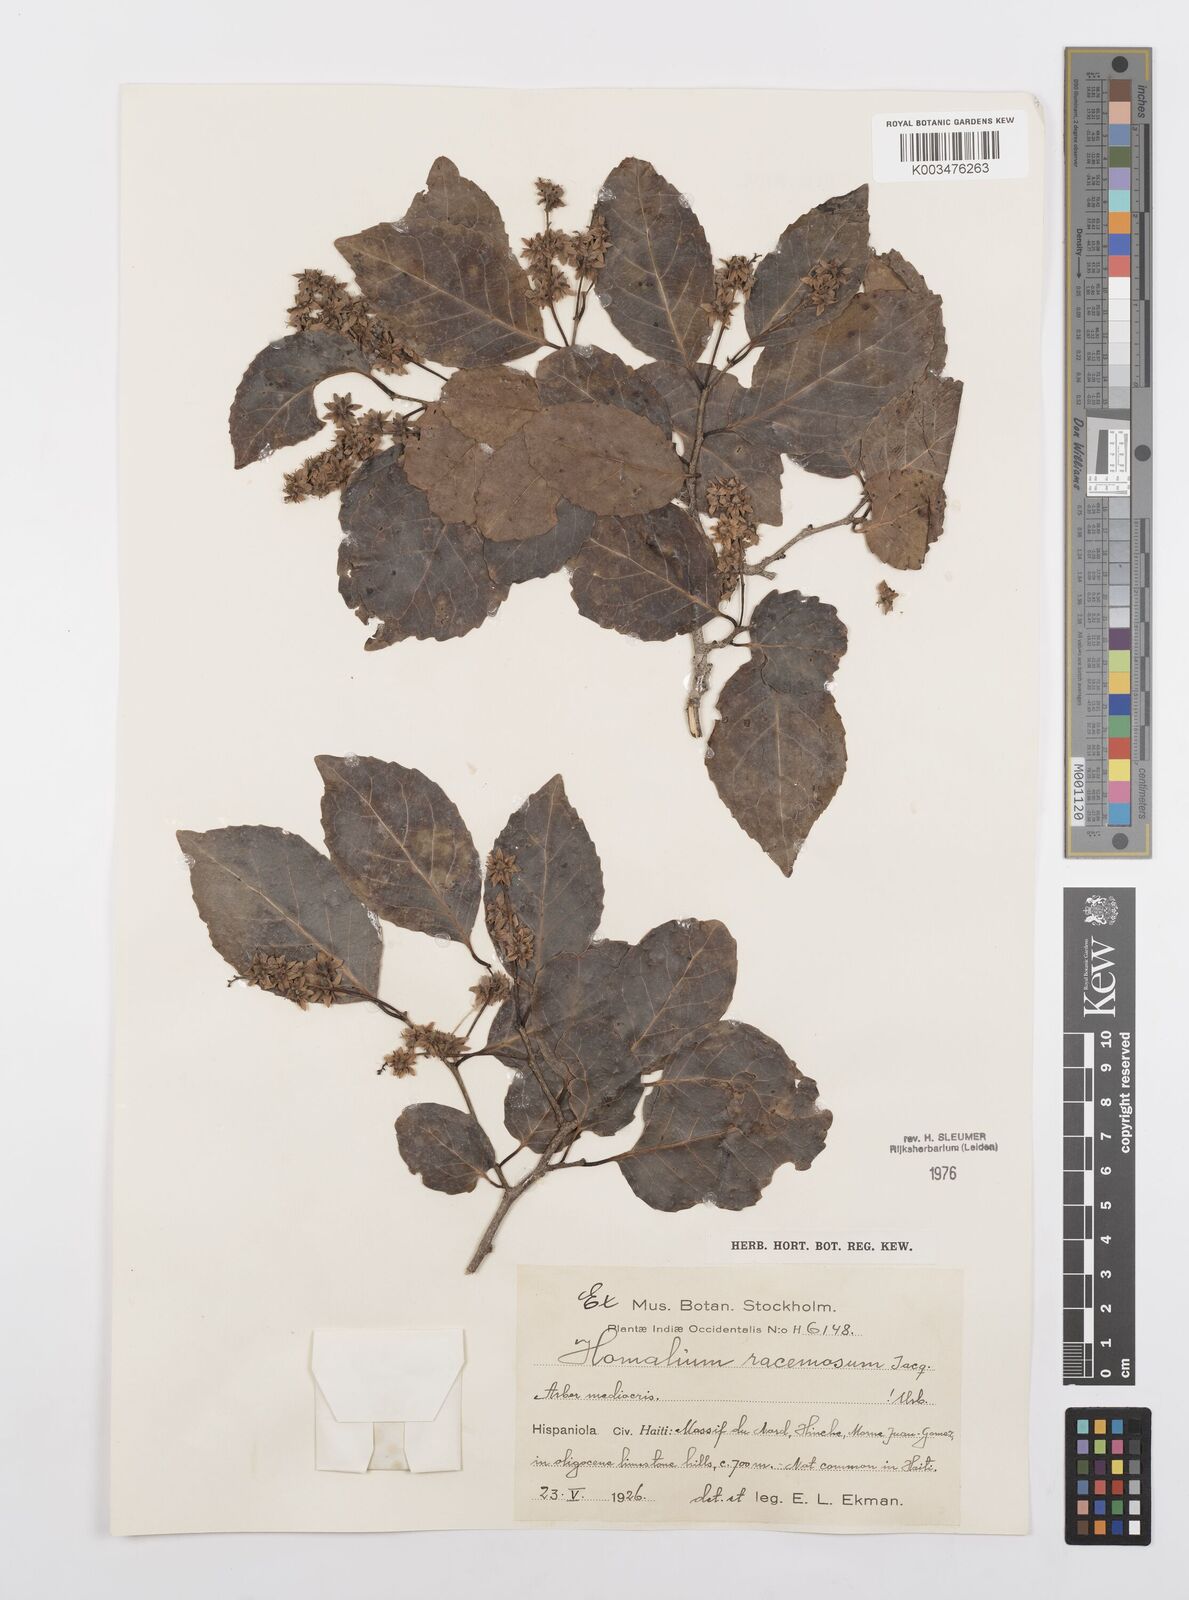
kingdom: Plantae
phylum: Tracheophyta
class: Magnoliopsida
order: Malpighiales
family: Salicaceae
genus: Homalium
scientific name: Homalium racemosum
